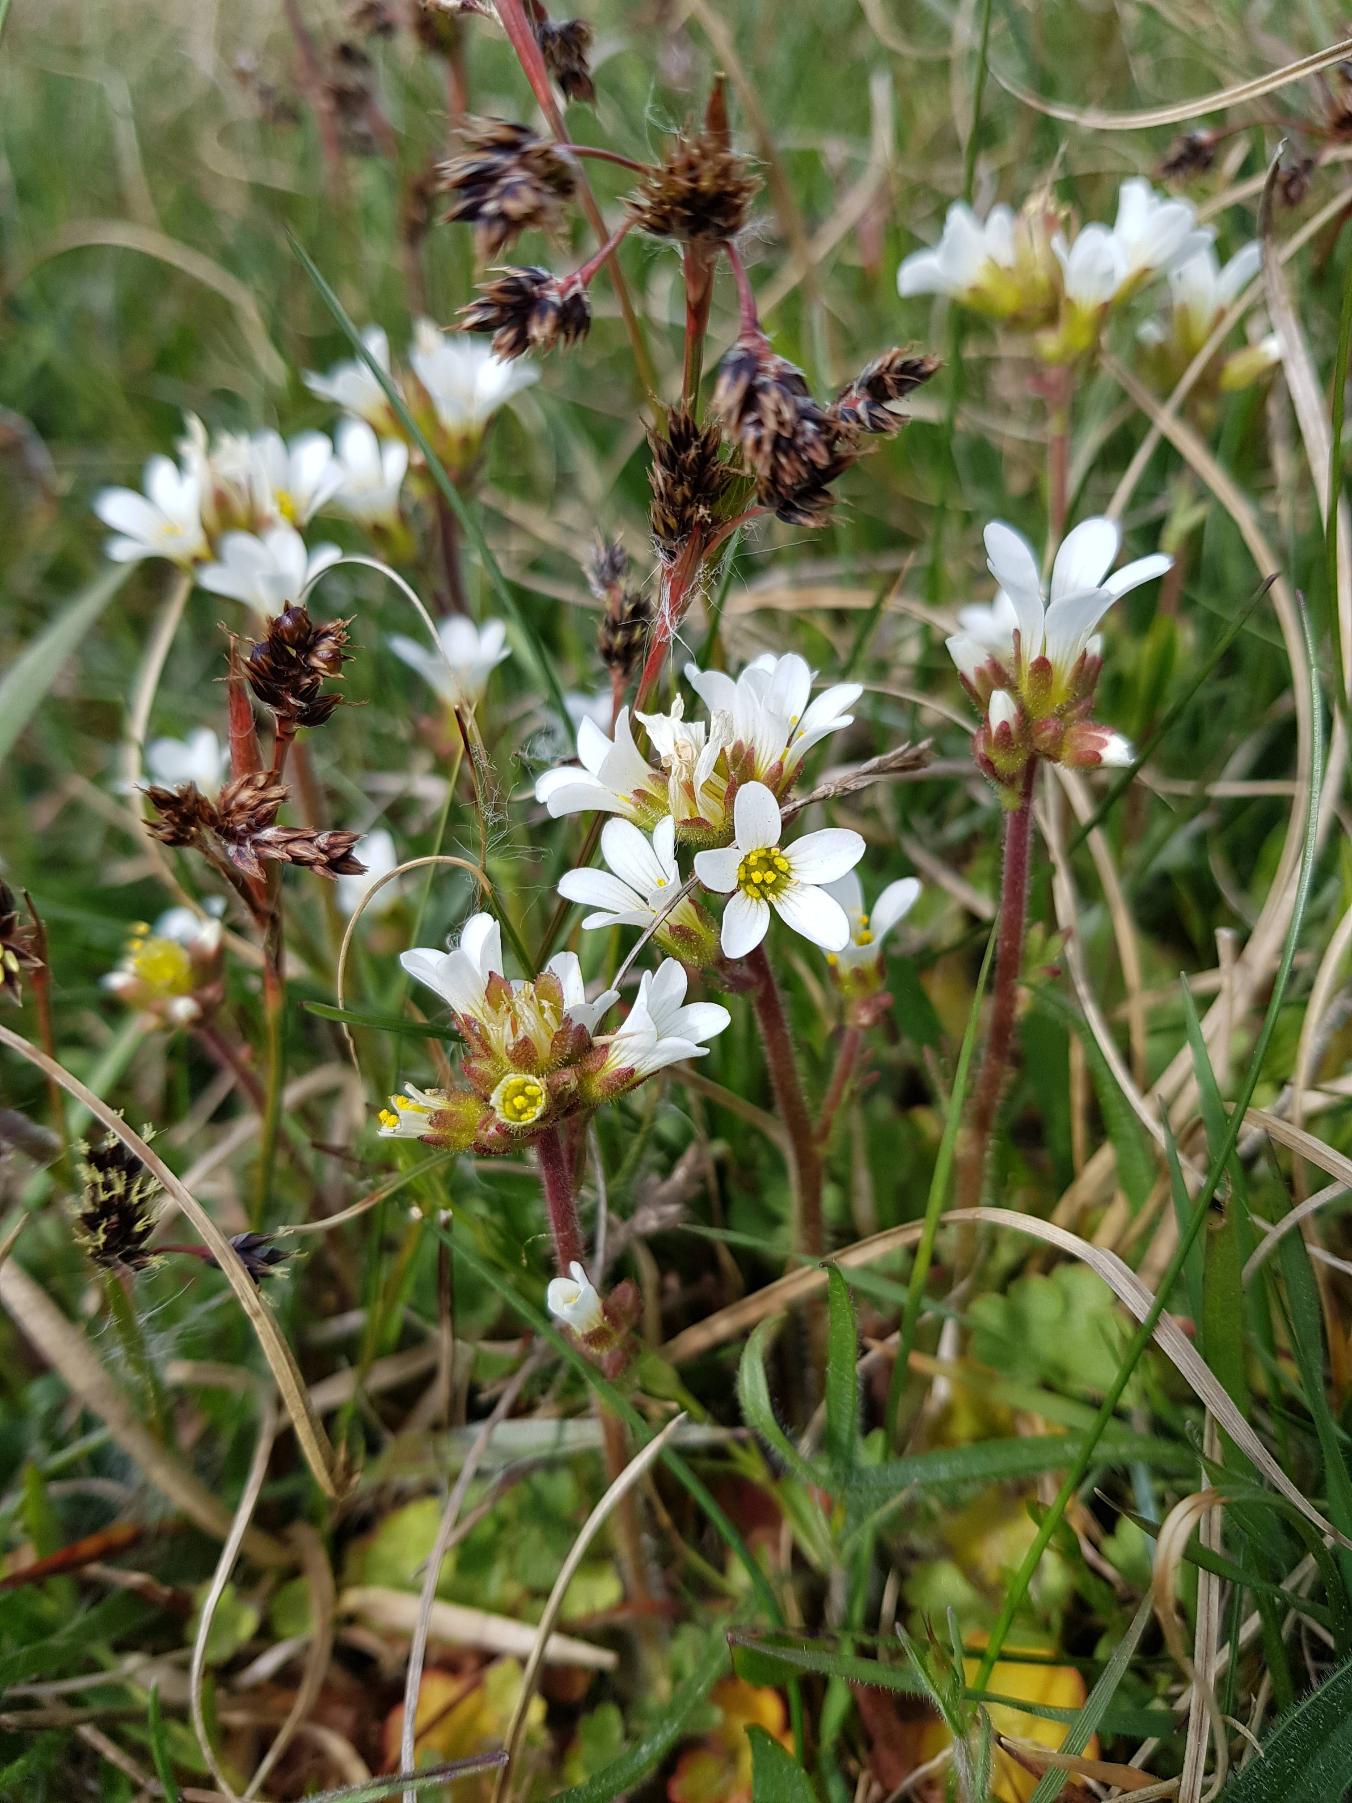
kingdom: Plantae
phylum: Tracheophyta
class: Magnoliopsida
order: Saxifragales
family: Saxifragaceae
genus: Saxifraga
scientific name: Saxifraga granulata
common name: Kornet stenbræk
